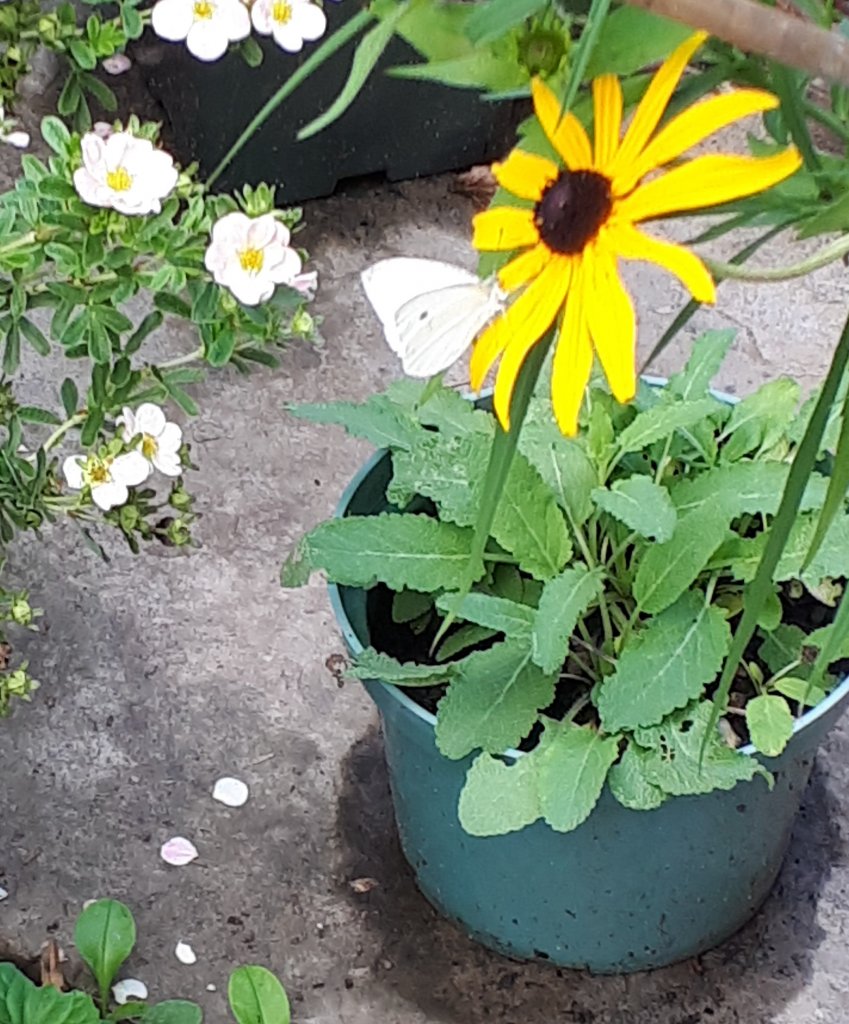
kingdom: Animalia
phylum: Arthropoda
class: Insecta
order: Lepidoptera
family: Pieridae
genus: Pieris
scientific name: Pieris rapae
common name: Cabbage White
